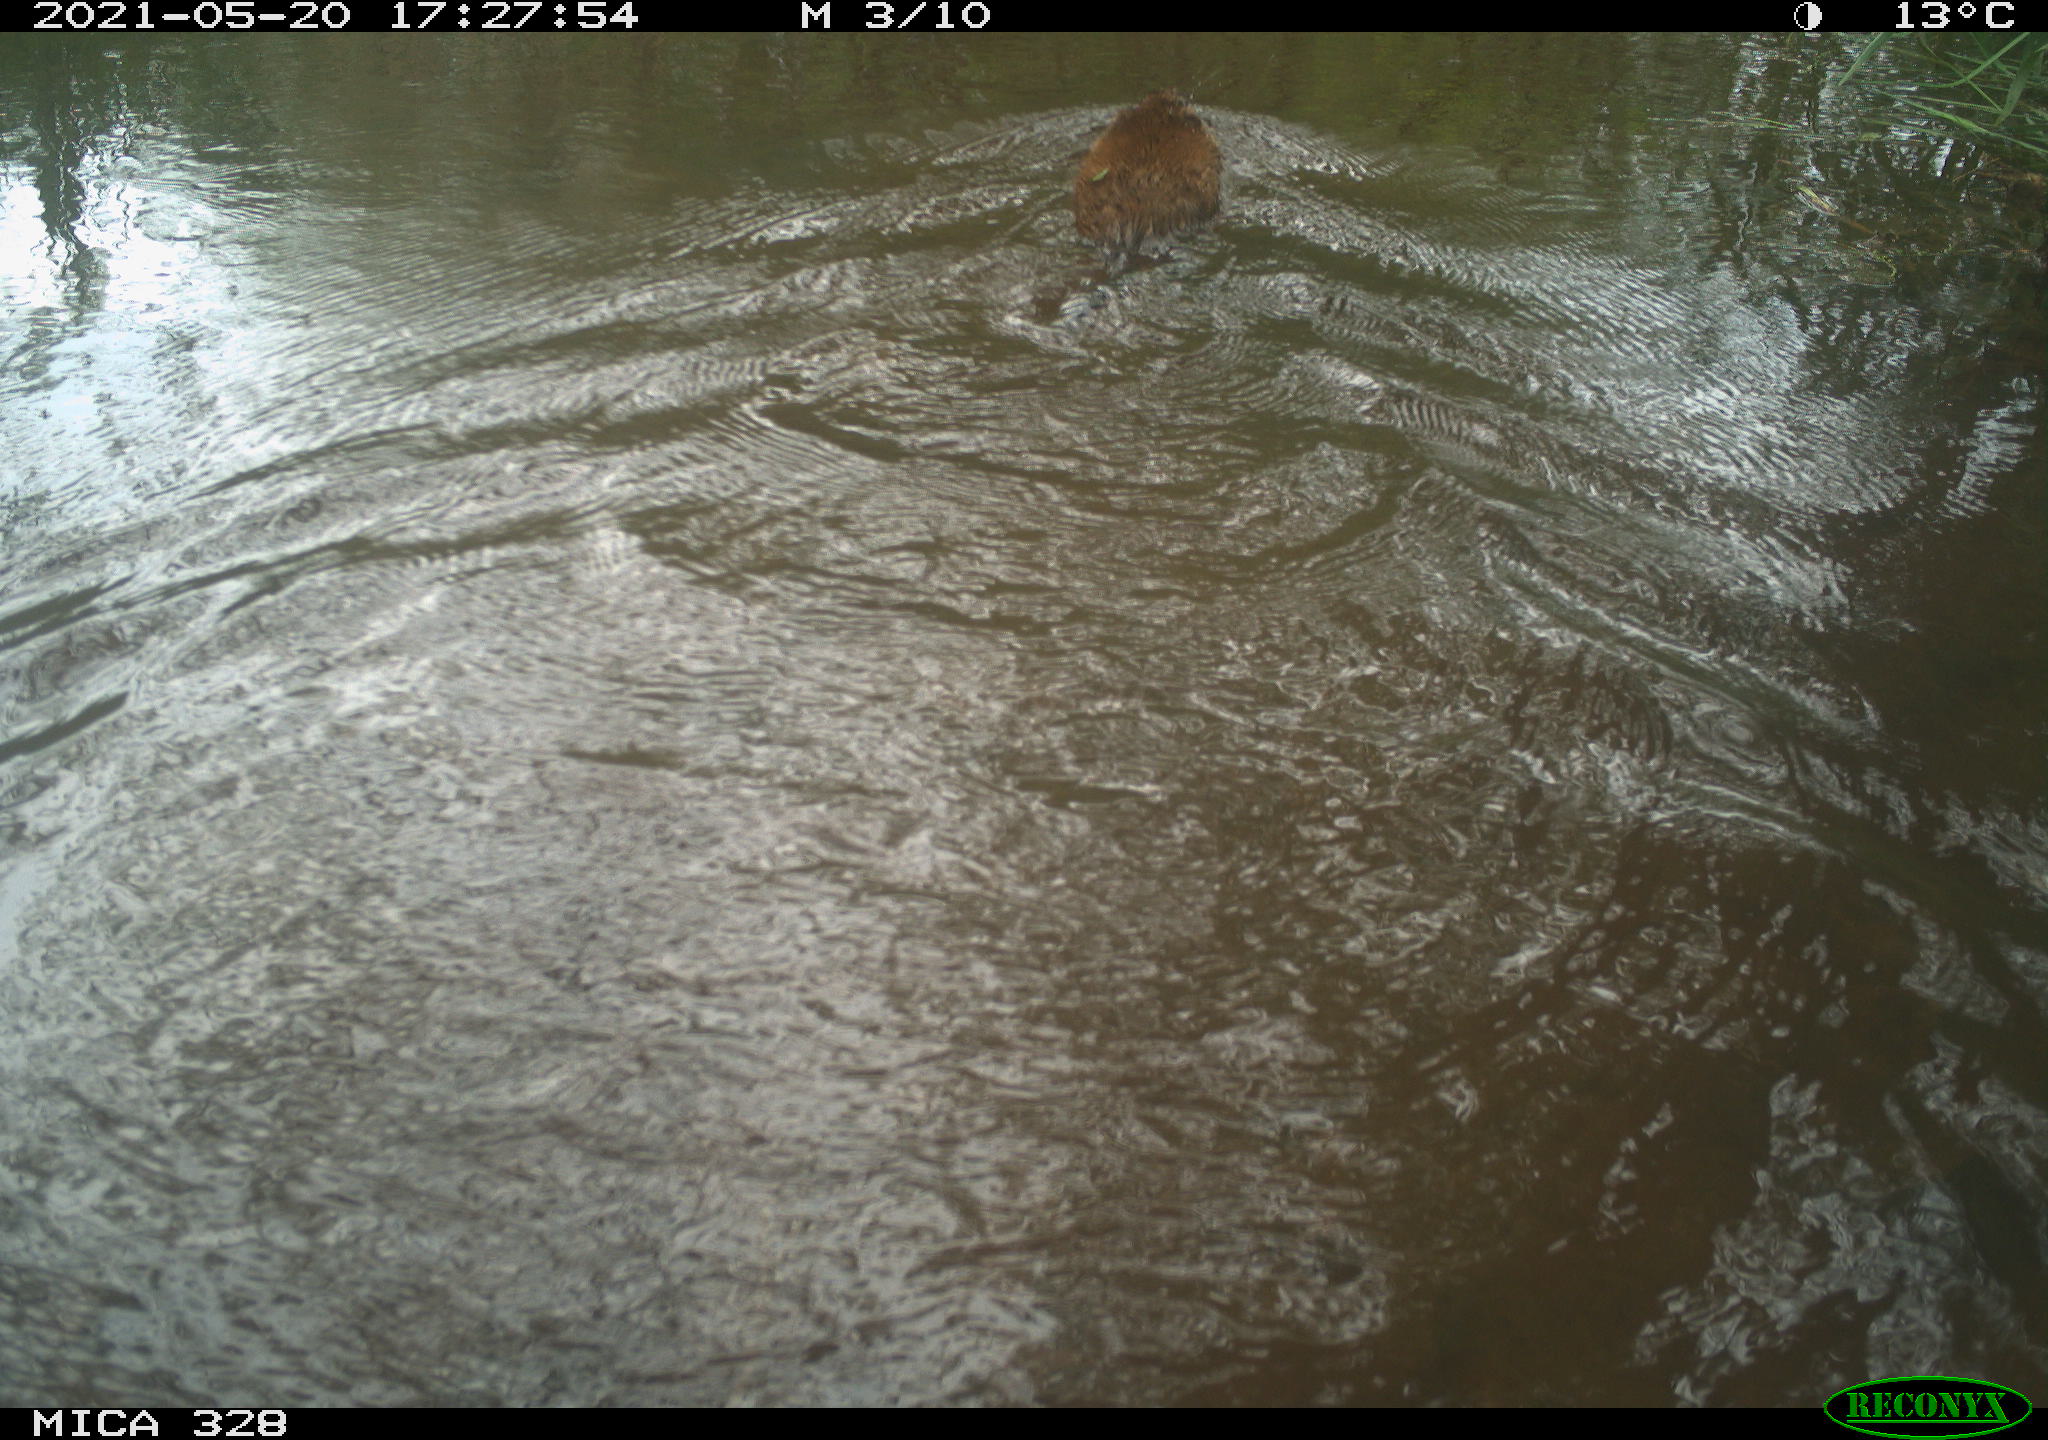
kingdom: Animalia
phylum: Chordata
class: Mammalia
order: Rodentia
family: Cricetidae
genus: Ondatra
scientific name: Ondatra zibethicus
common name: Muskrat
